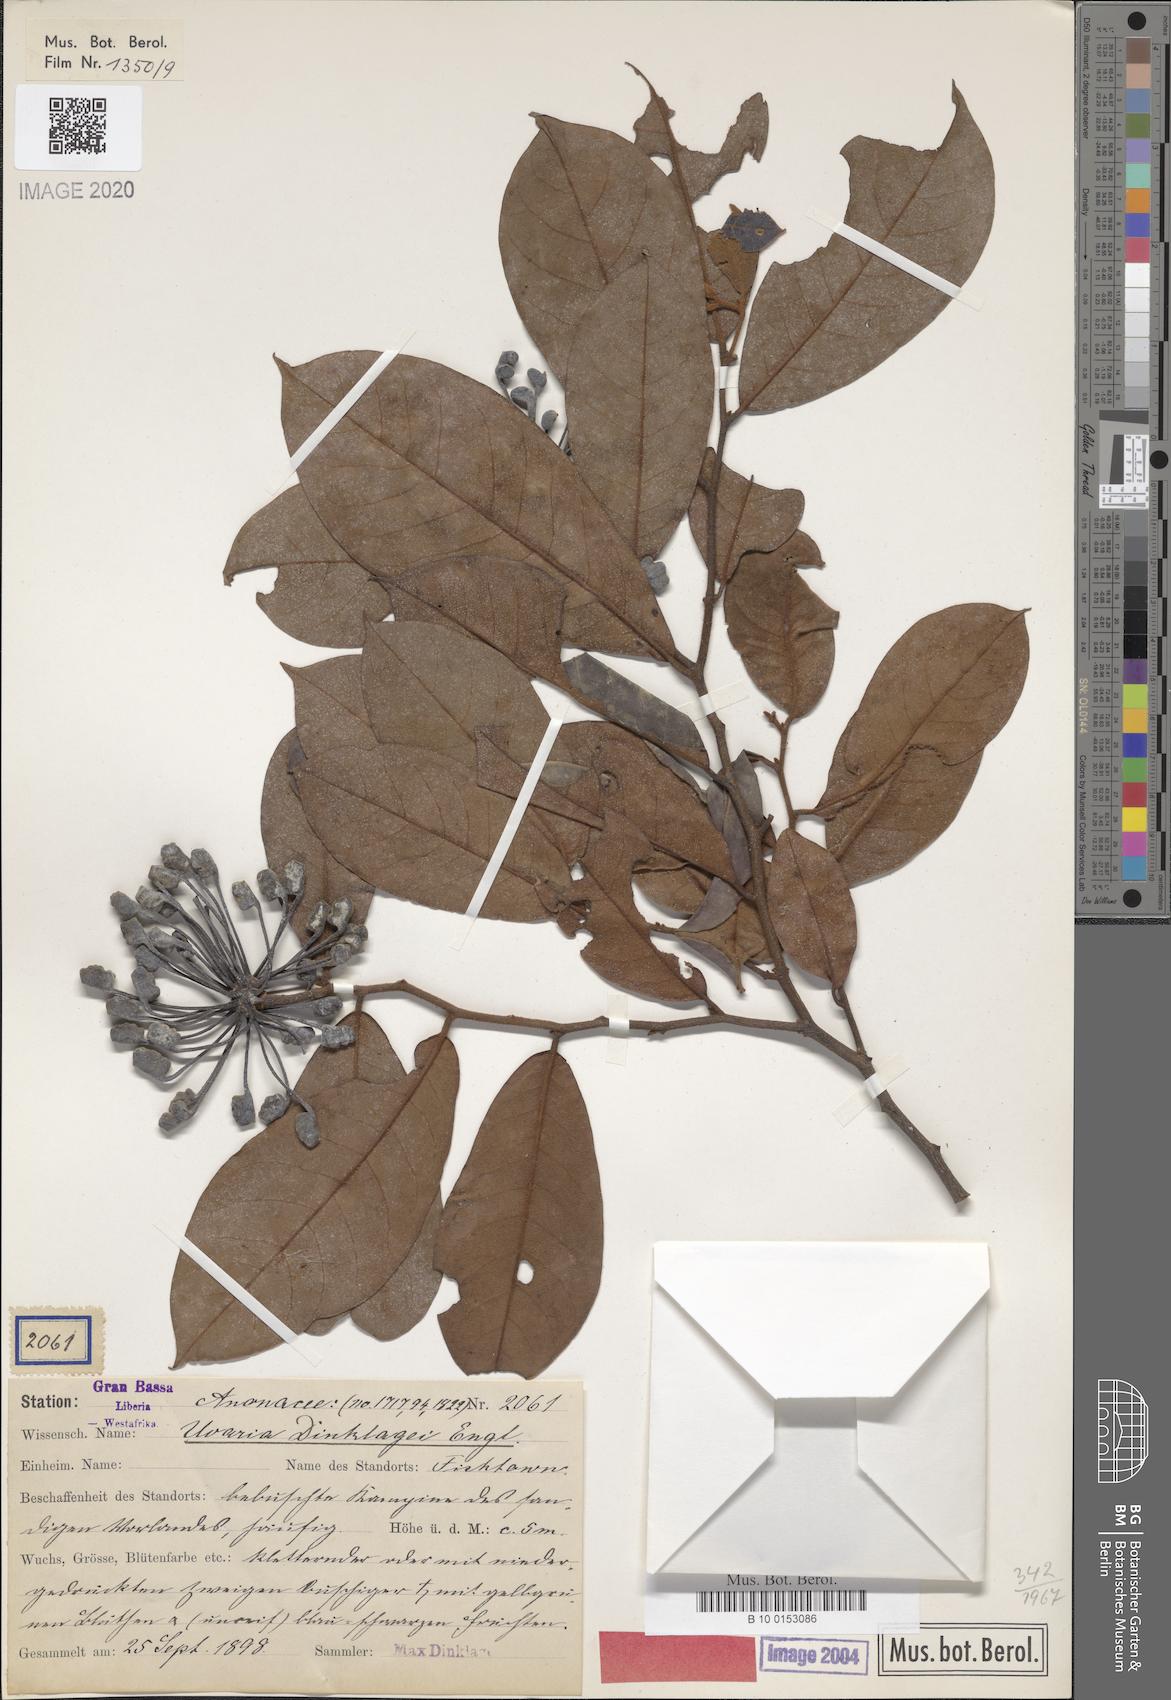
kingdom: Plantae
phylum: Tracheophyta
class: Magnoliopsida
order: Magnoliales
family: Annonaceae
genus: Uvaria
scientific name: Uvaria dinklagei
